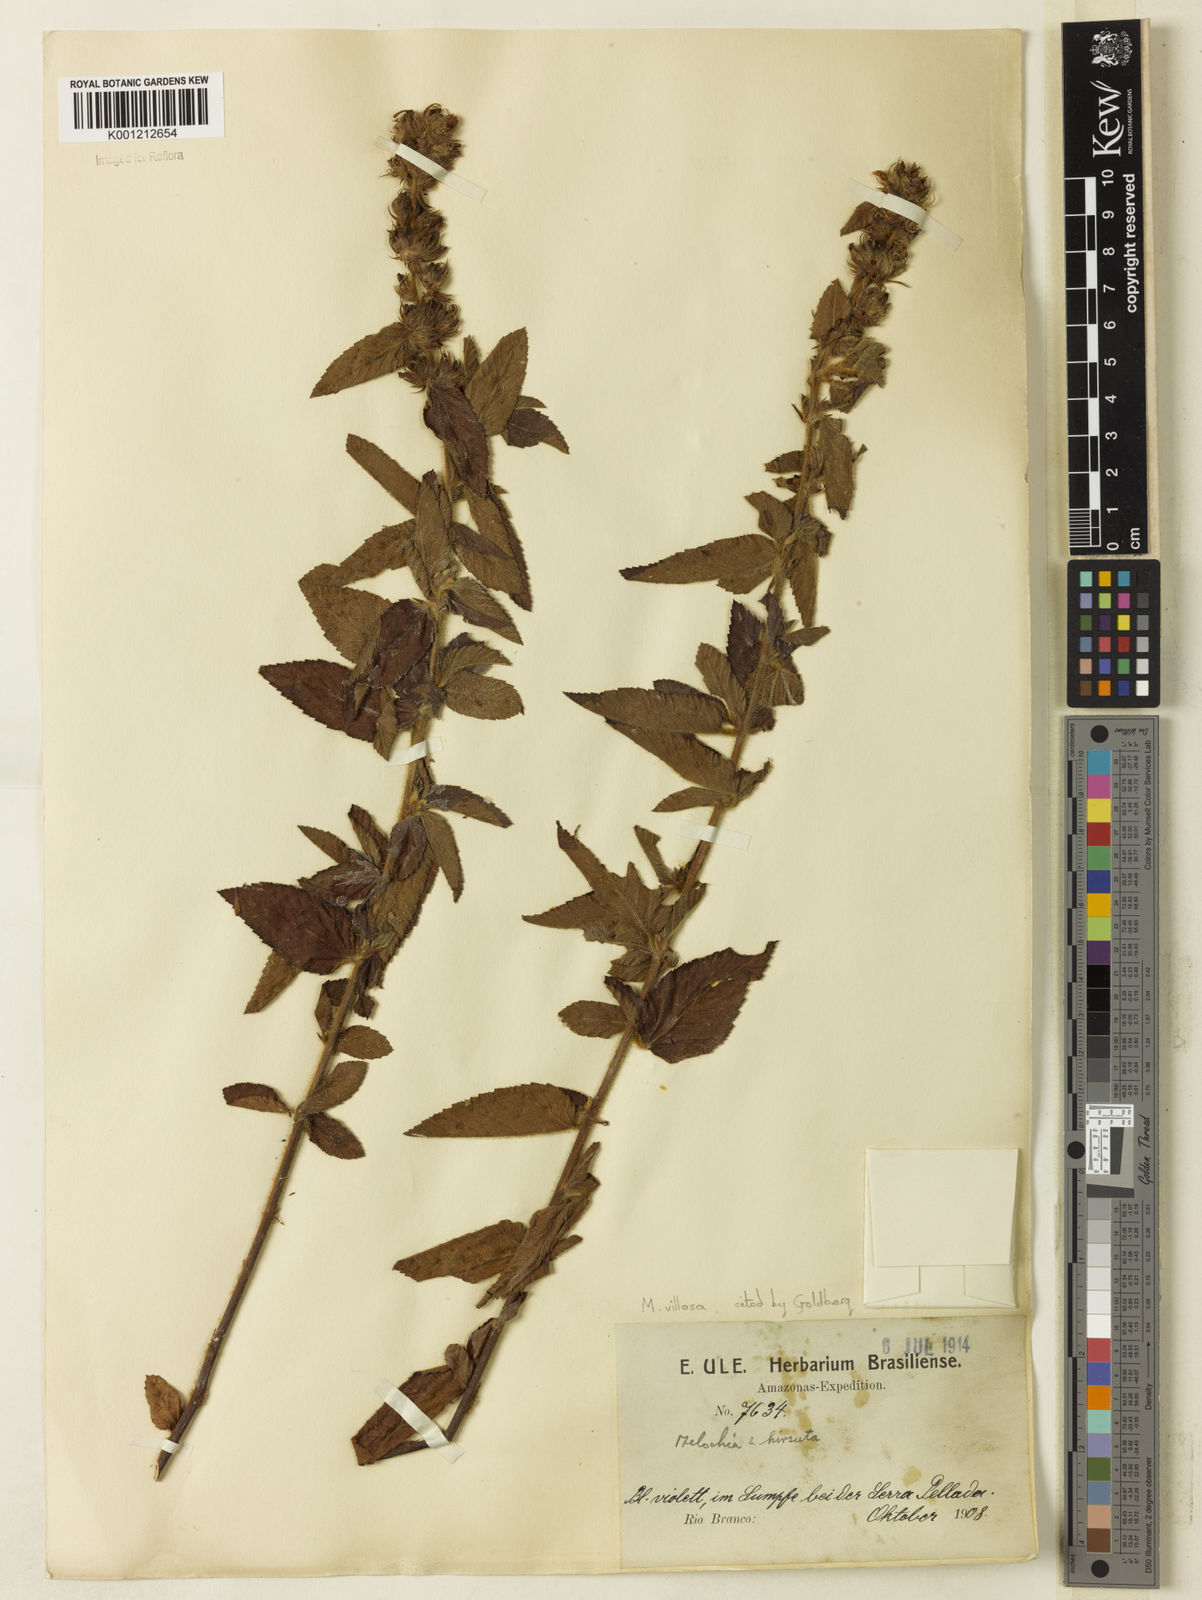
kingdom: Plantae
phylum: Tracheophyta
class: Magnoliopsida
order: Malvales
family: Malvaceae
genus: Melochia
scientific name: Melochia spicata
